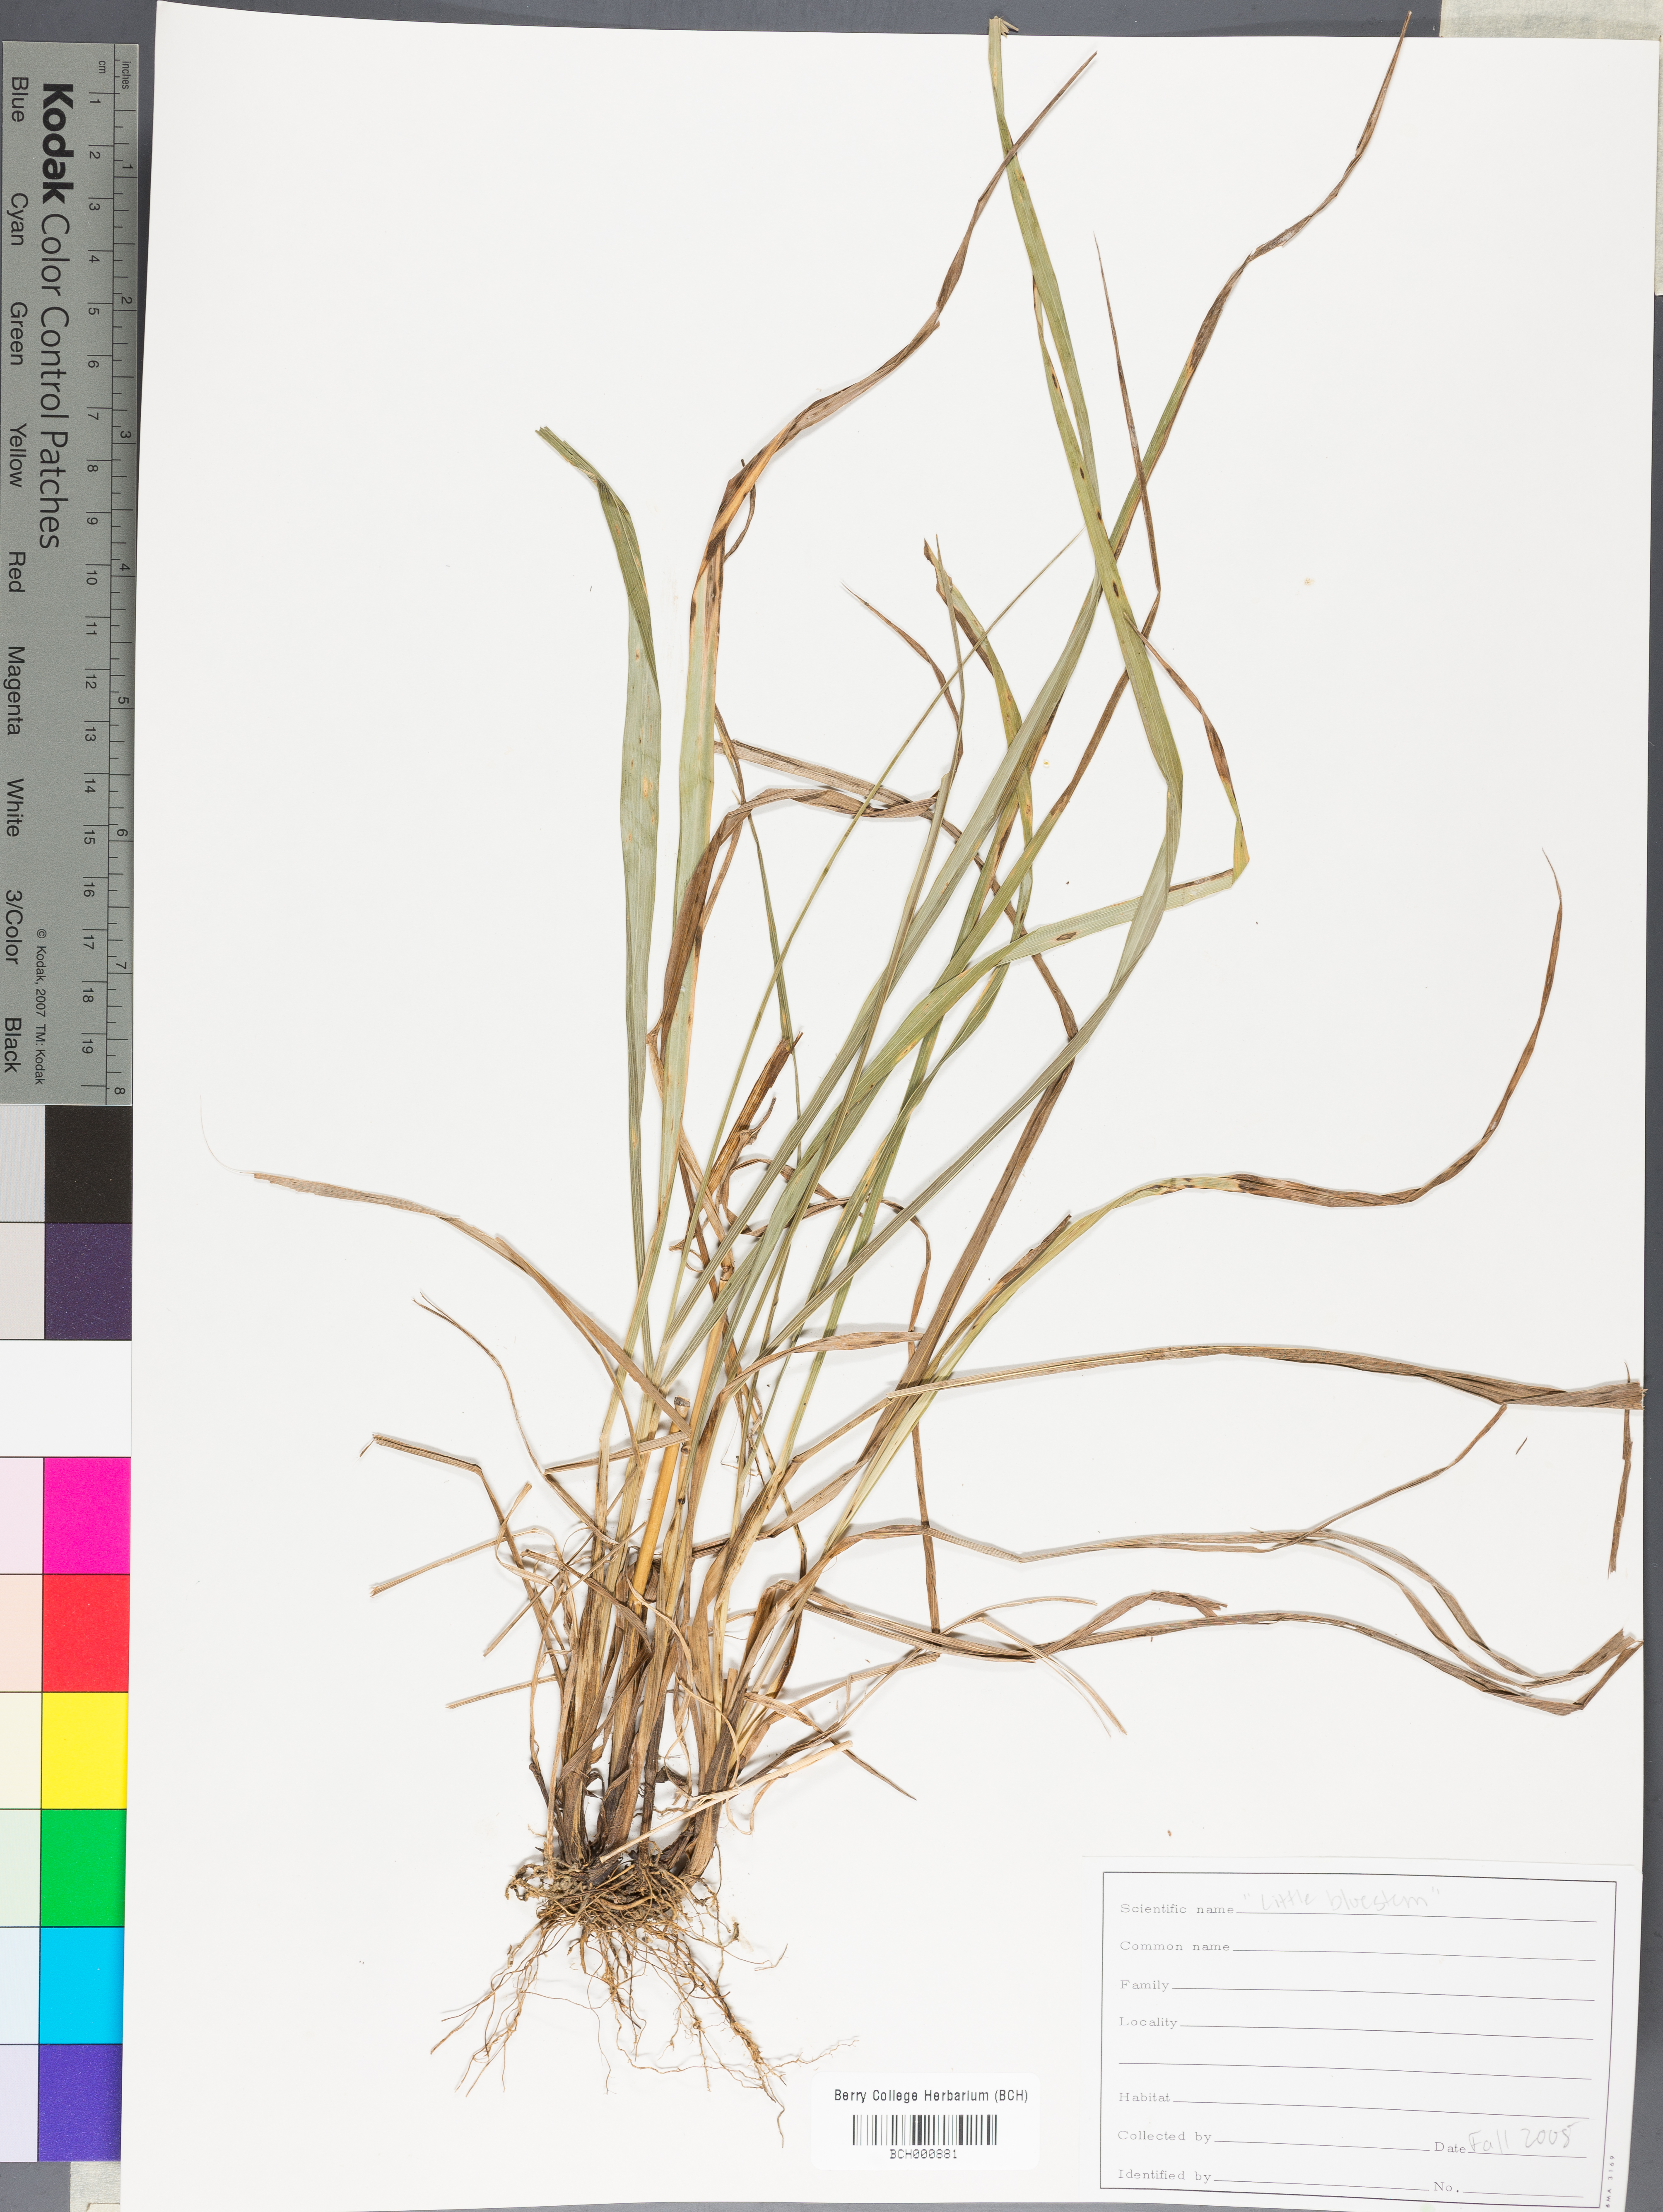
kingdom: Plantae
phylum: Tracheophyta
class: Magnoliopsida
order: Lamiales
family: Acanthaceae
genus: Adhatoda
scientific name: Adhatoda
